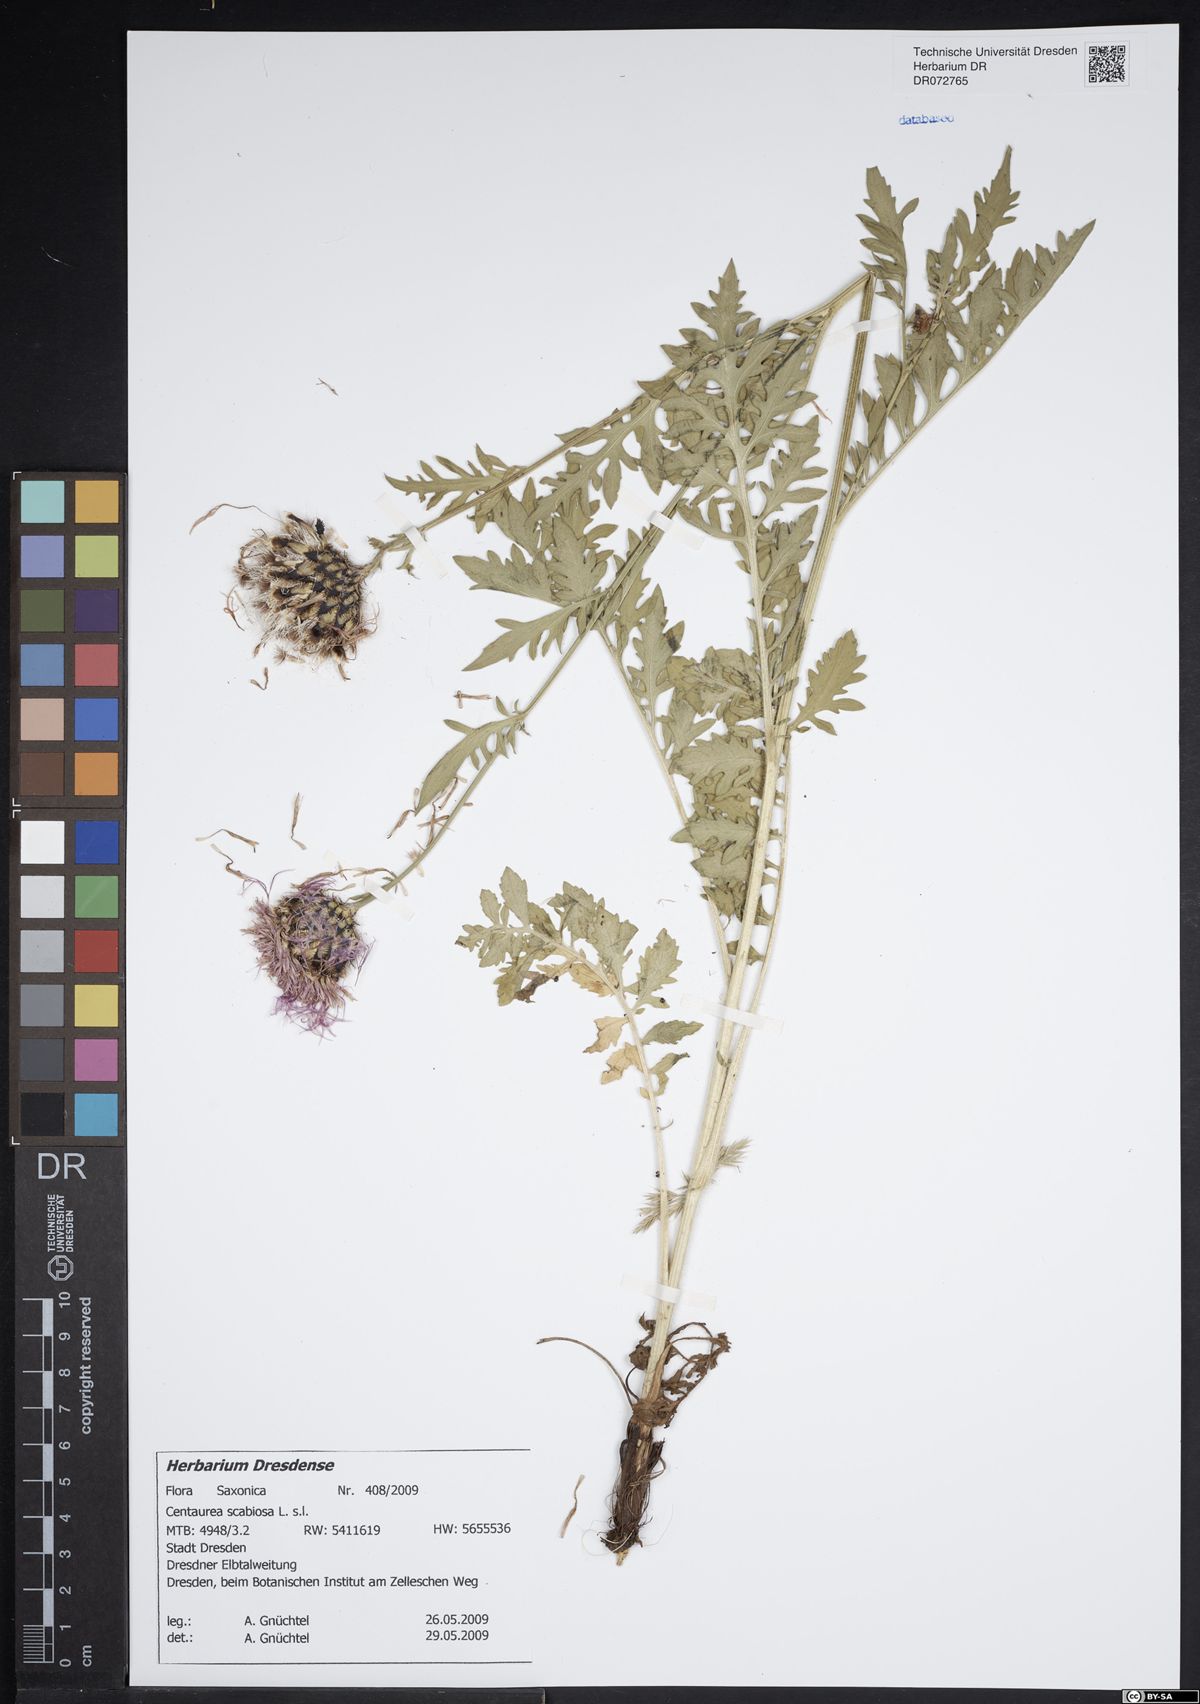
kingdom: Plantae
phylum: Tracheophyta
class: Magnoliopsida
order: Asterales
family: Asteraceae
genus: Centaurea
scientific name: Centaurea scabiosa
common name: Greater knapweed
